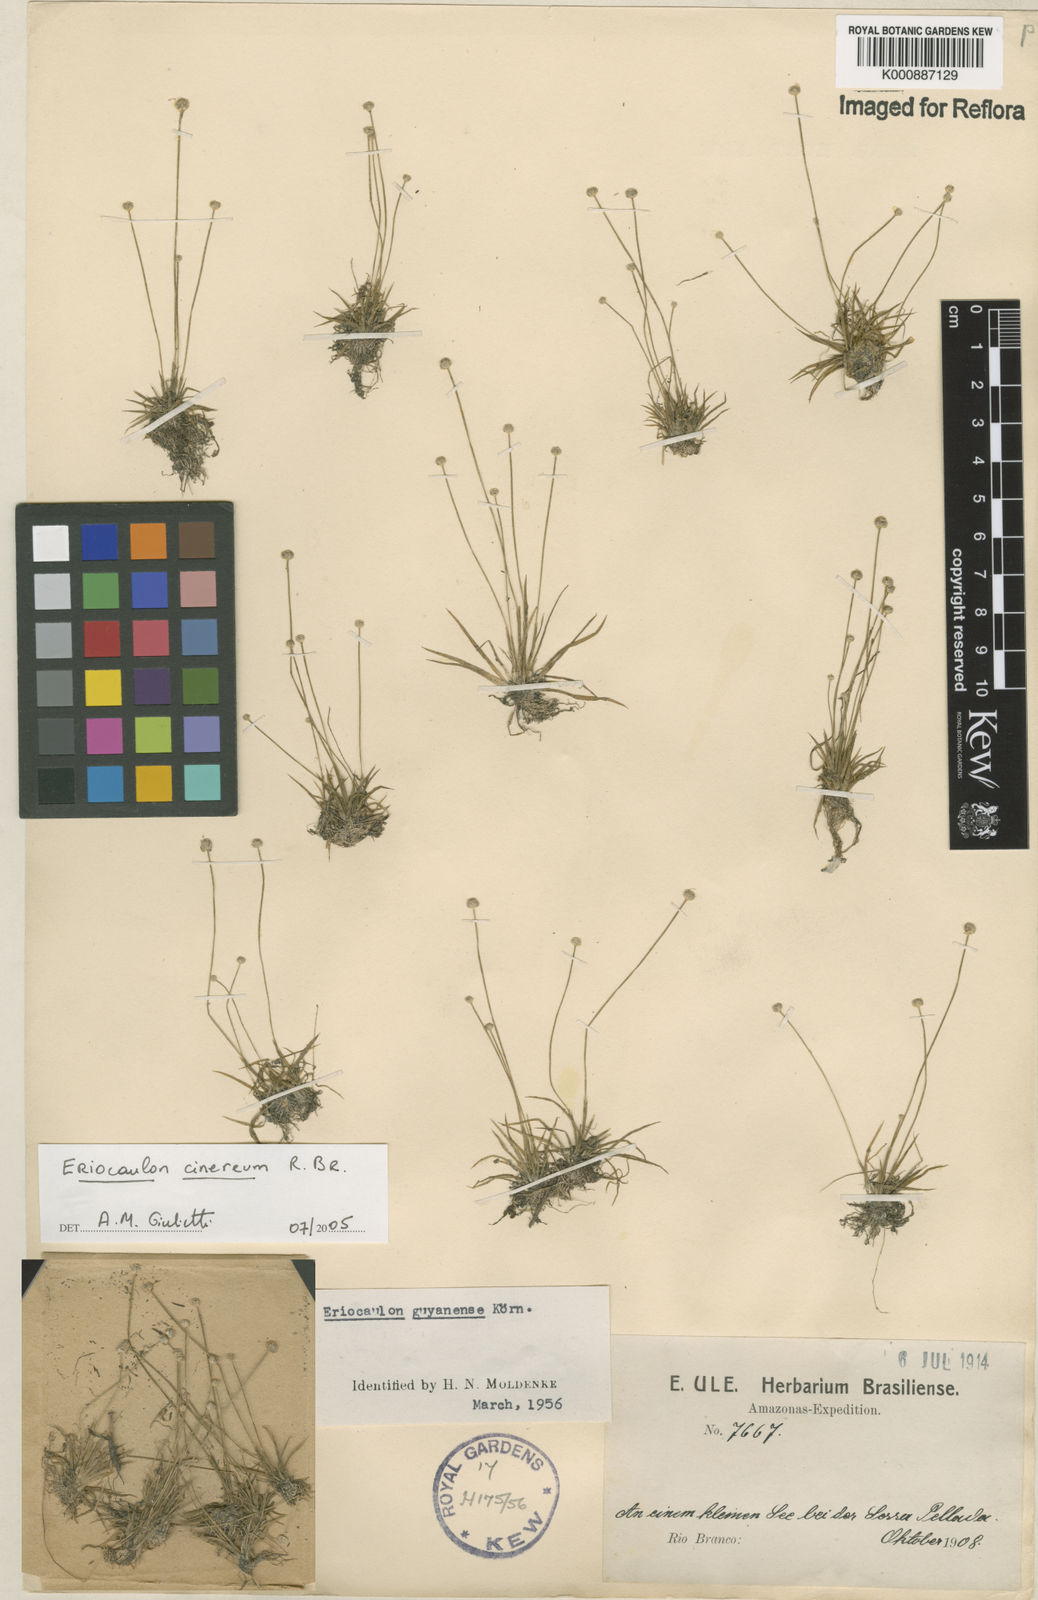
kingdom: Plantae
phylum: Tracheophyta
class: Liliopsida
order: Poales
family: Eriocaulaceae
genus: Eriocaulon
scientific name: Eriocaulon cinereum
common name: Ashy pipewort
